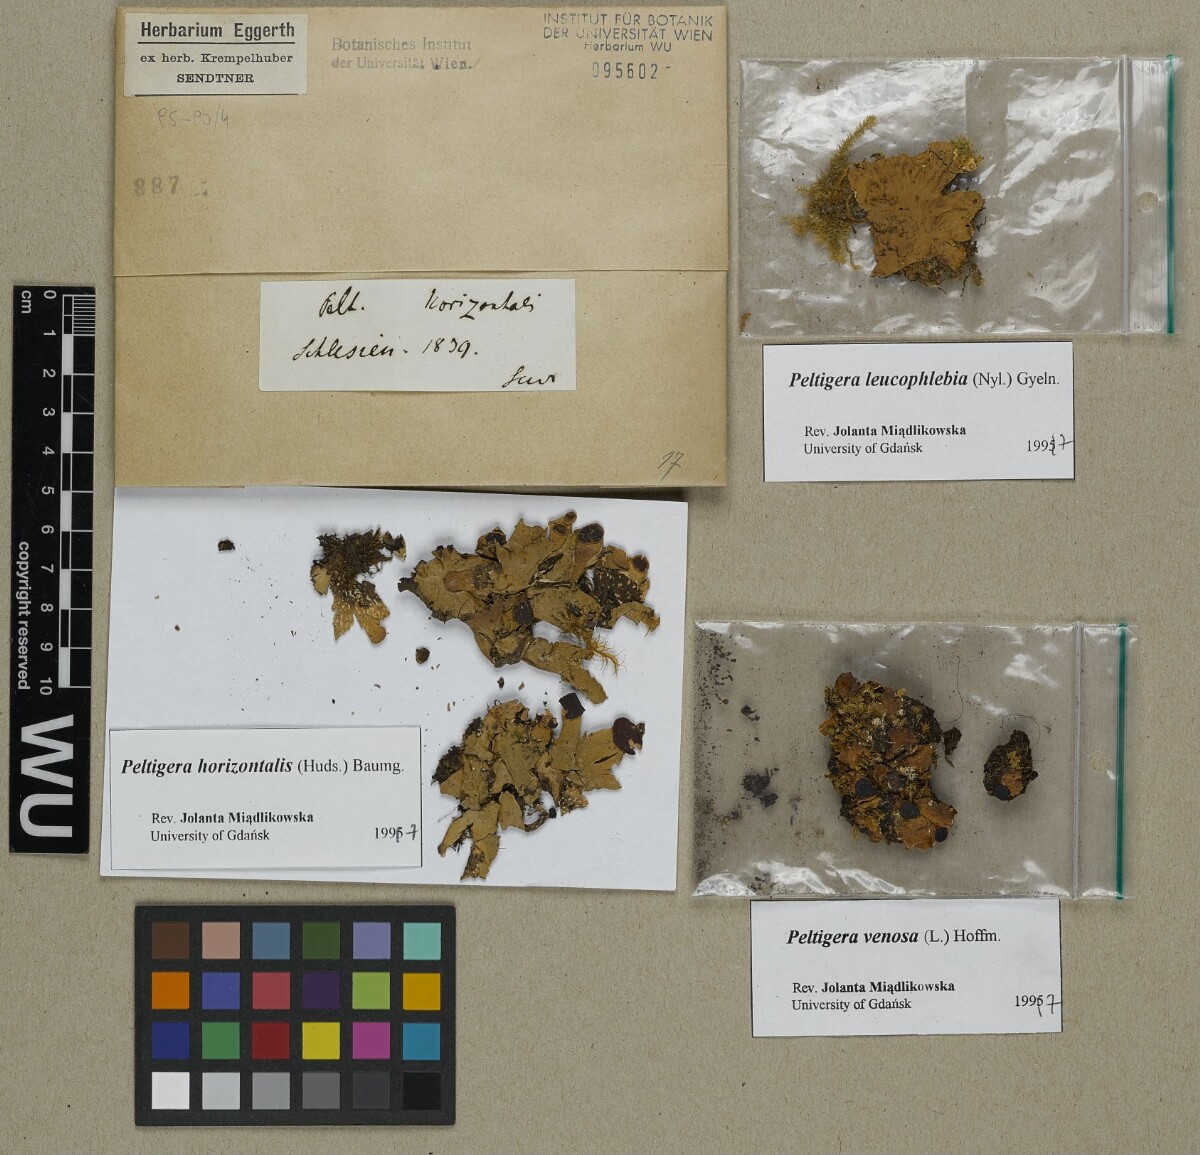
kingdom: Fungi
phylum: Ascomycota
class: Lecanoromycetes
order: Peltigerales
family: Peltigeraceae
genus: Peltigera
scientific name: Peltigera horizontalis
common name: Flat fruited pelt
